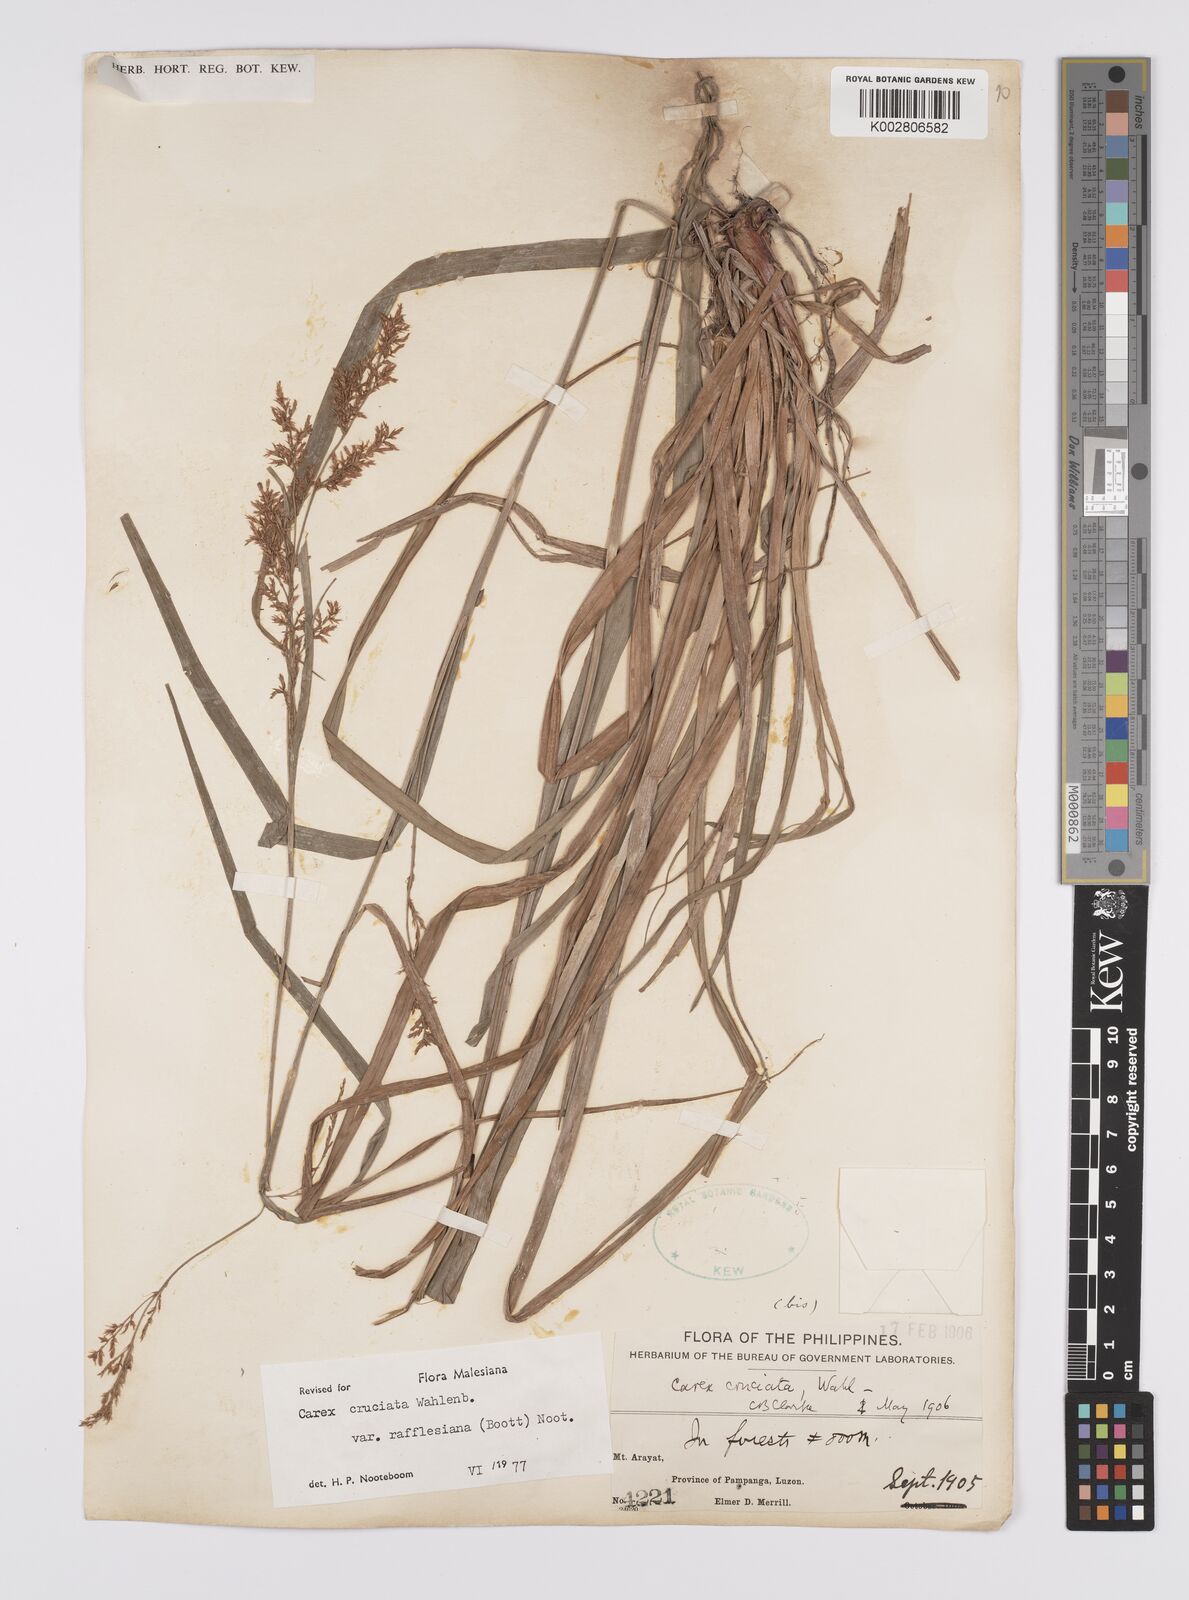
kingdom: Plantae
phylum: Tracheophyta
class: Liliopsida
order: Poales
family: Cyperaceae
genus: Carex
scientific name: Carex rafflesiana
